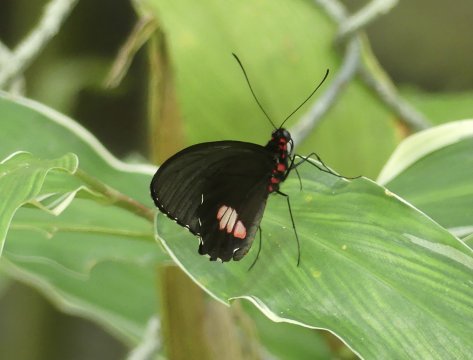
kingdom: Animalia
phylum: Arthropoda
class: Insecta
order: Lepidoptera
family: Papilionidae
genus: Parides
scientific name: Parides erithalion
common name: Variable Cattleheart
